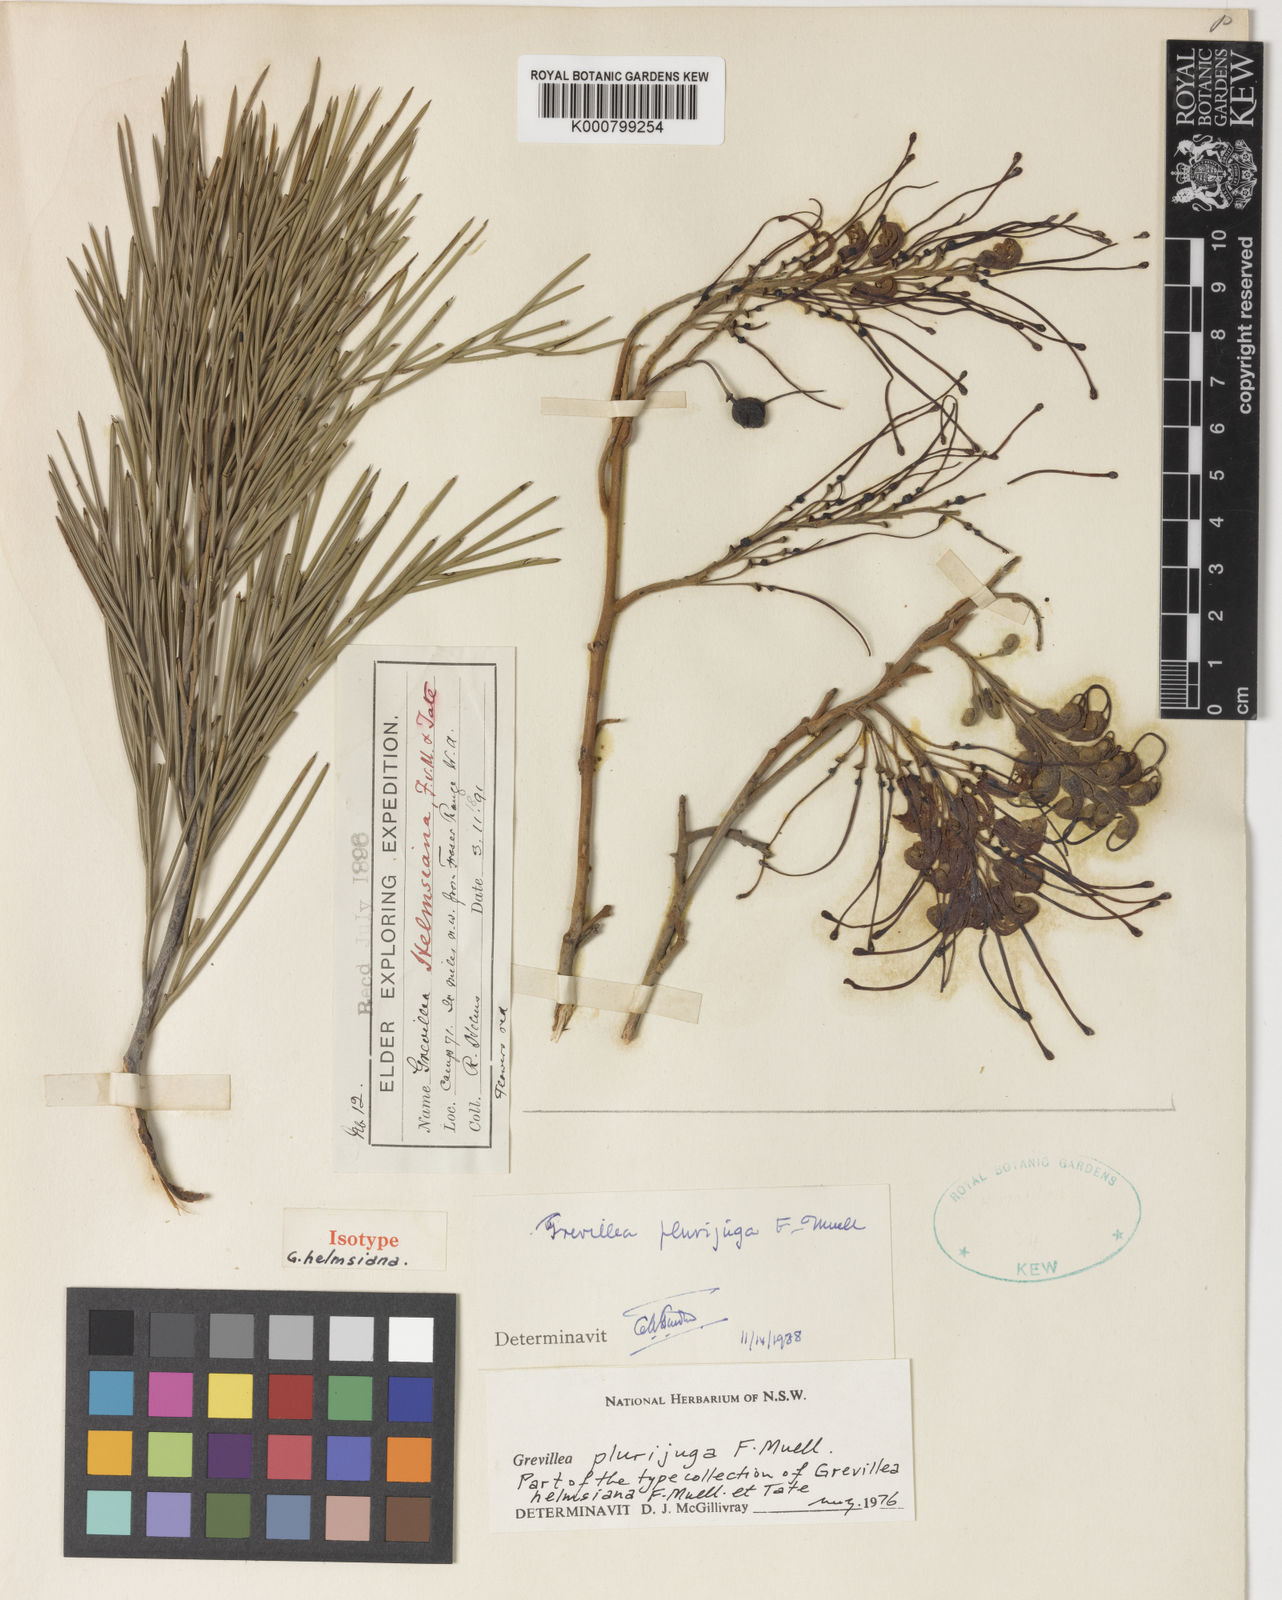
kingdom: Plantae
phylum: Tracheophyta
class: Magnoliopsida
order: Proteales
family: Proteaceae
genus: Grevillea
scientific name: Grevillea plurijuga
